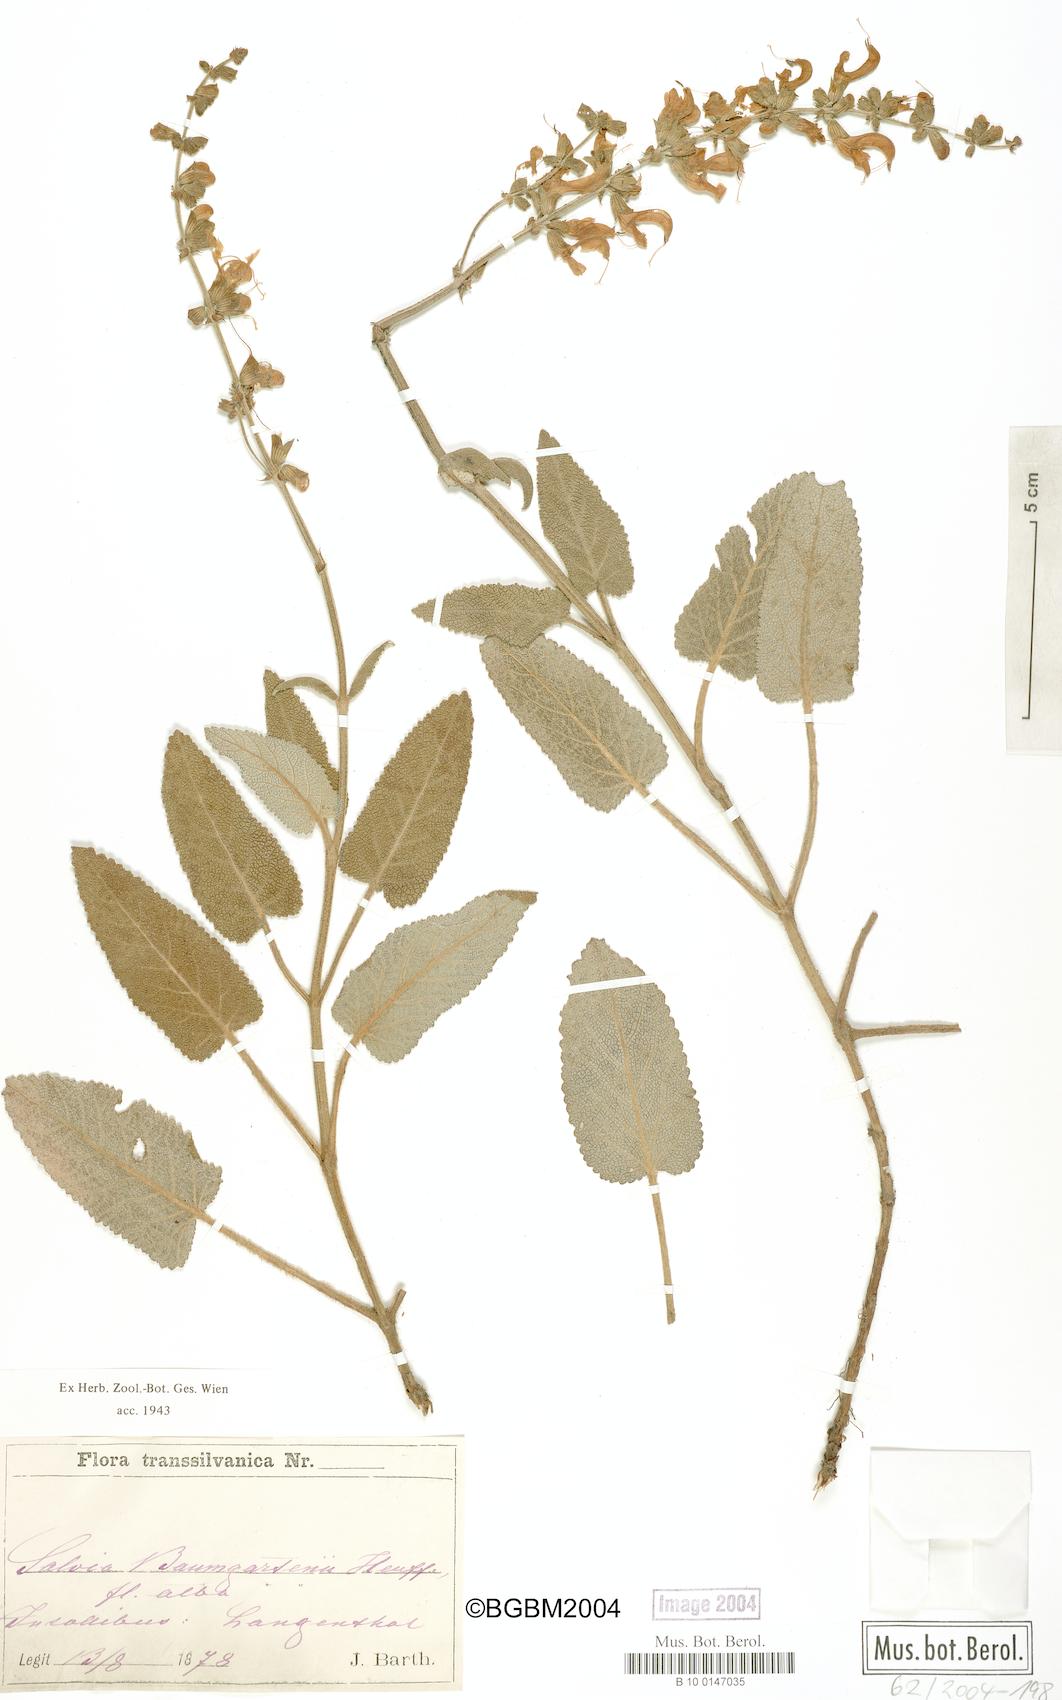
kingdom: Plantae
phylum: Tracheophyta
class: Magnoliopsida
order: Lamiales
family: Lamiaceae
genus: Salvia
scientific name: Salvia transsylvanica
